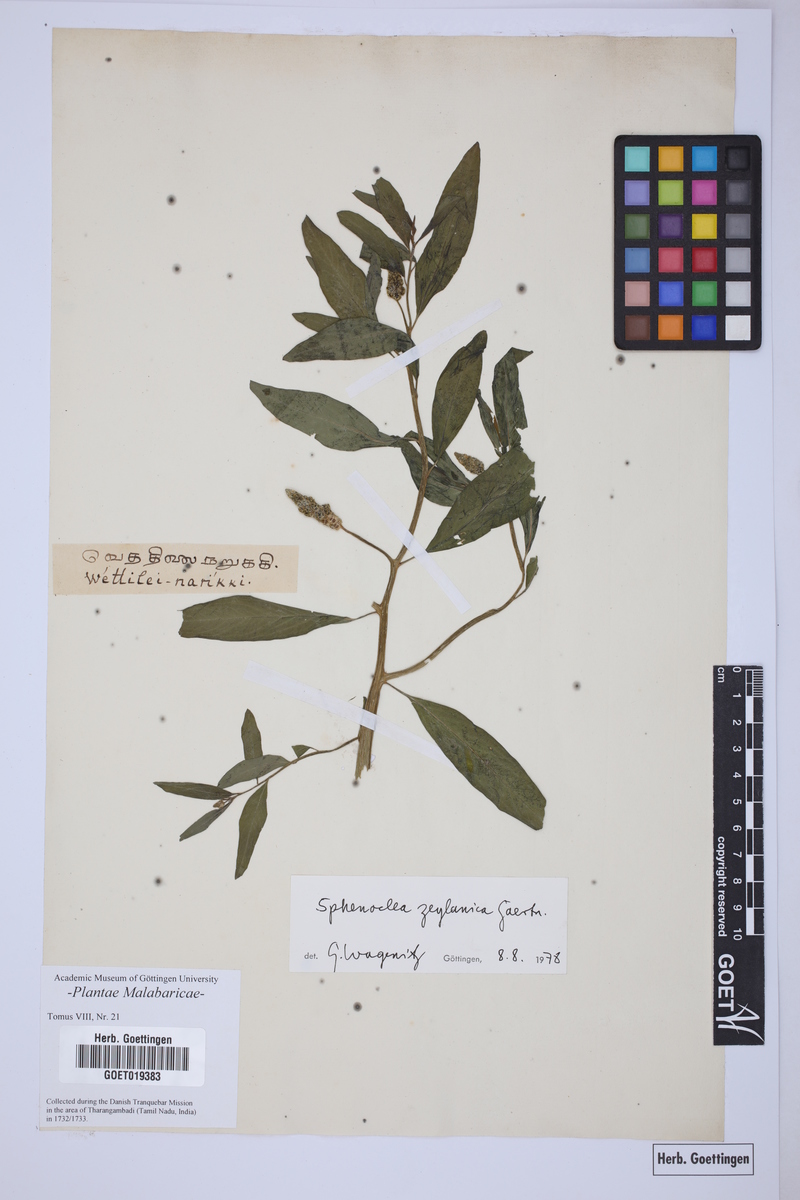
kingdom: Plantae
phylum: Tracheophyta
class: Magnoliopsida
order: Solanales
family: Sphenocleaceae
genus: Sphenoclea
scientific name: Sphenoclea zeylanica
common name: Chickenspike
